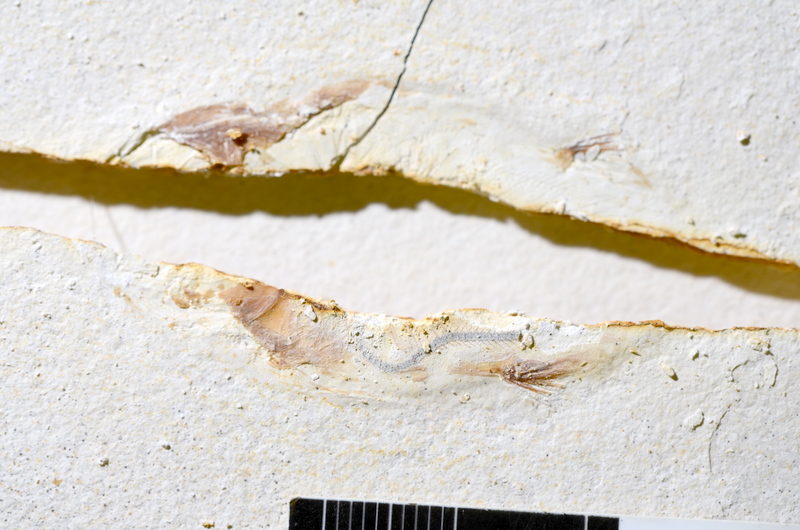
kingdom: Animalia
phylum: Chordata
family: Ascalaboidae
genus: Ebertichthys
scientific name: Ebertichthys ettlingensis
